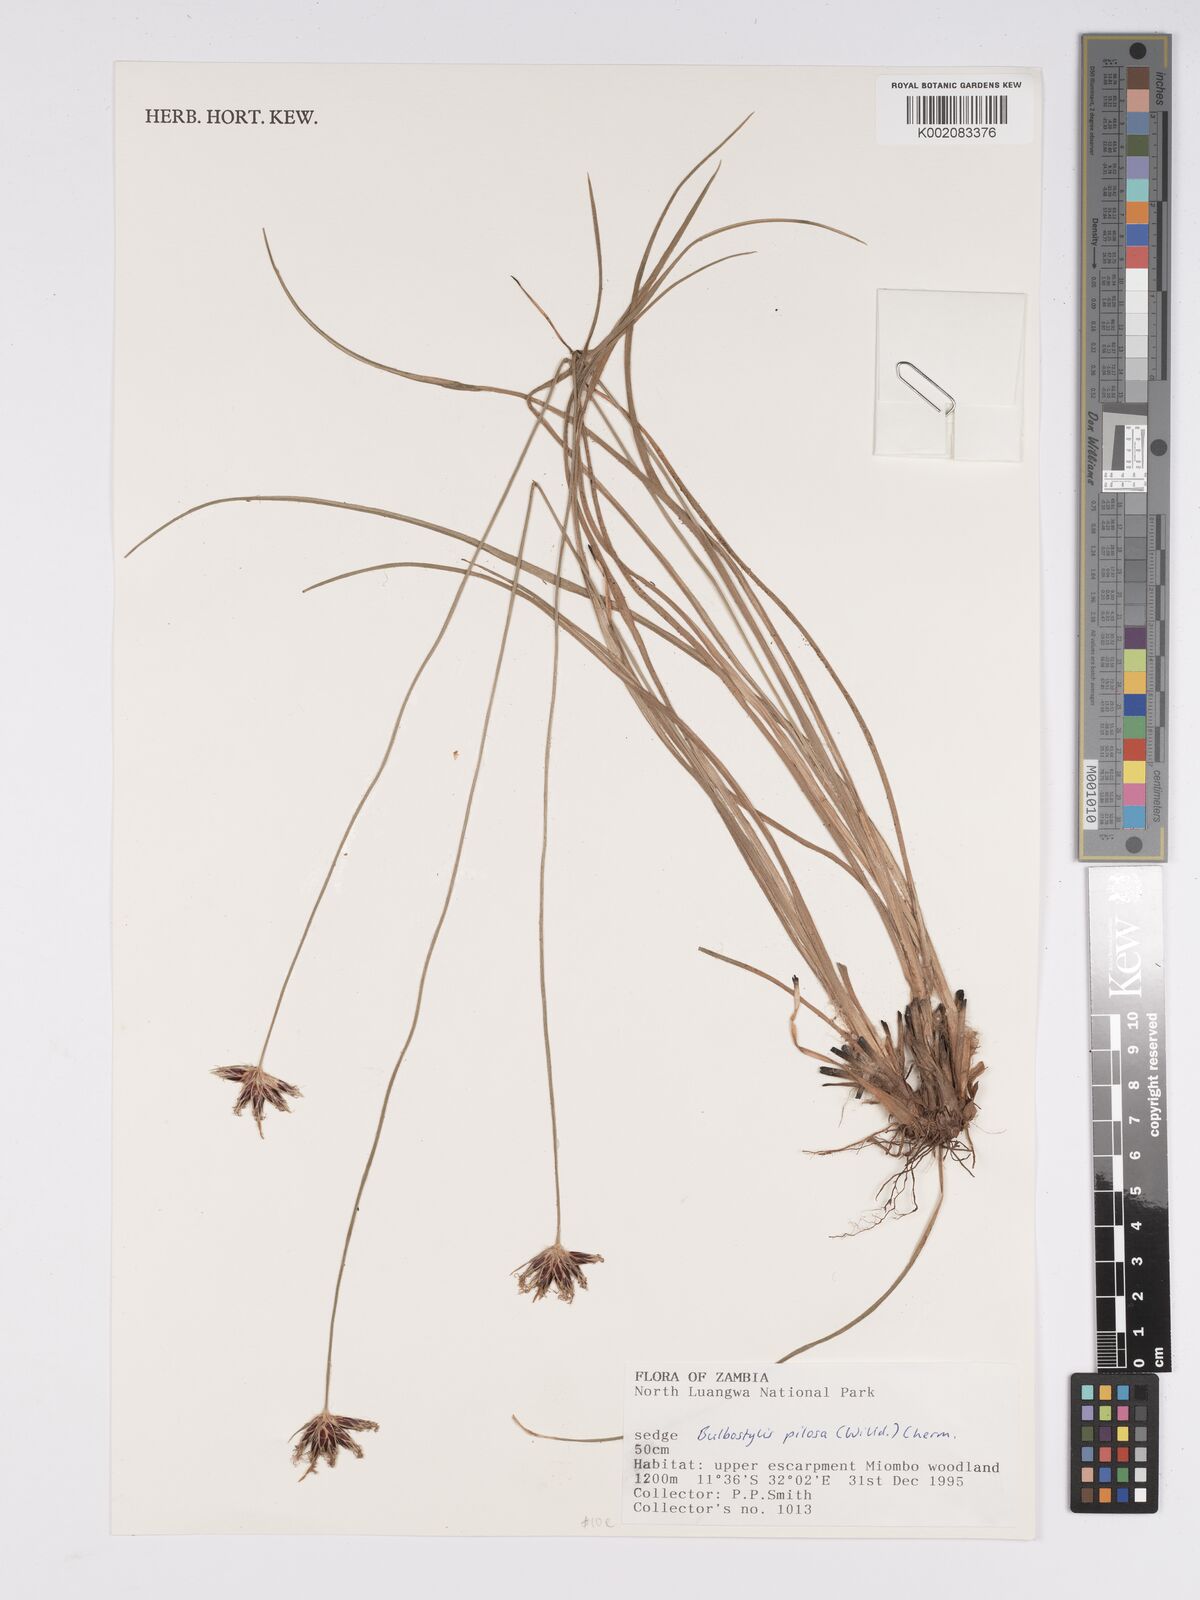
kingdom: Plantae
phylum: Tracheophyta
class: Liliopsida
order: Poales
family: Cyperaceae
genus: Bulbostylis
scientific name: Bulbostylis pilosa
